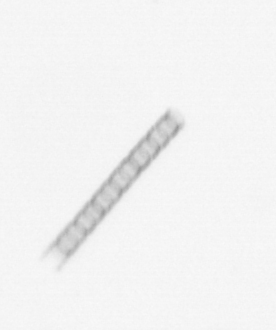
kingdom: Chromista
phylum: Ochrophyta
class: Bacillariophyceae
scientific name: Bacillariophyceae
